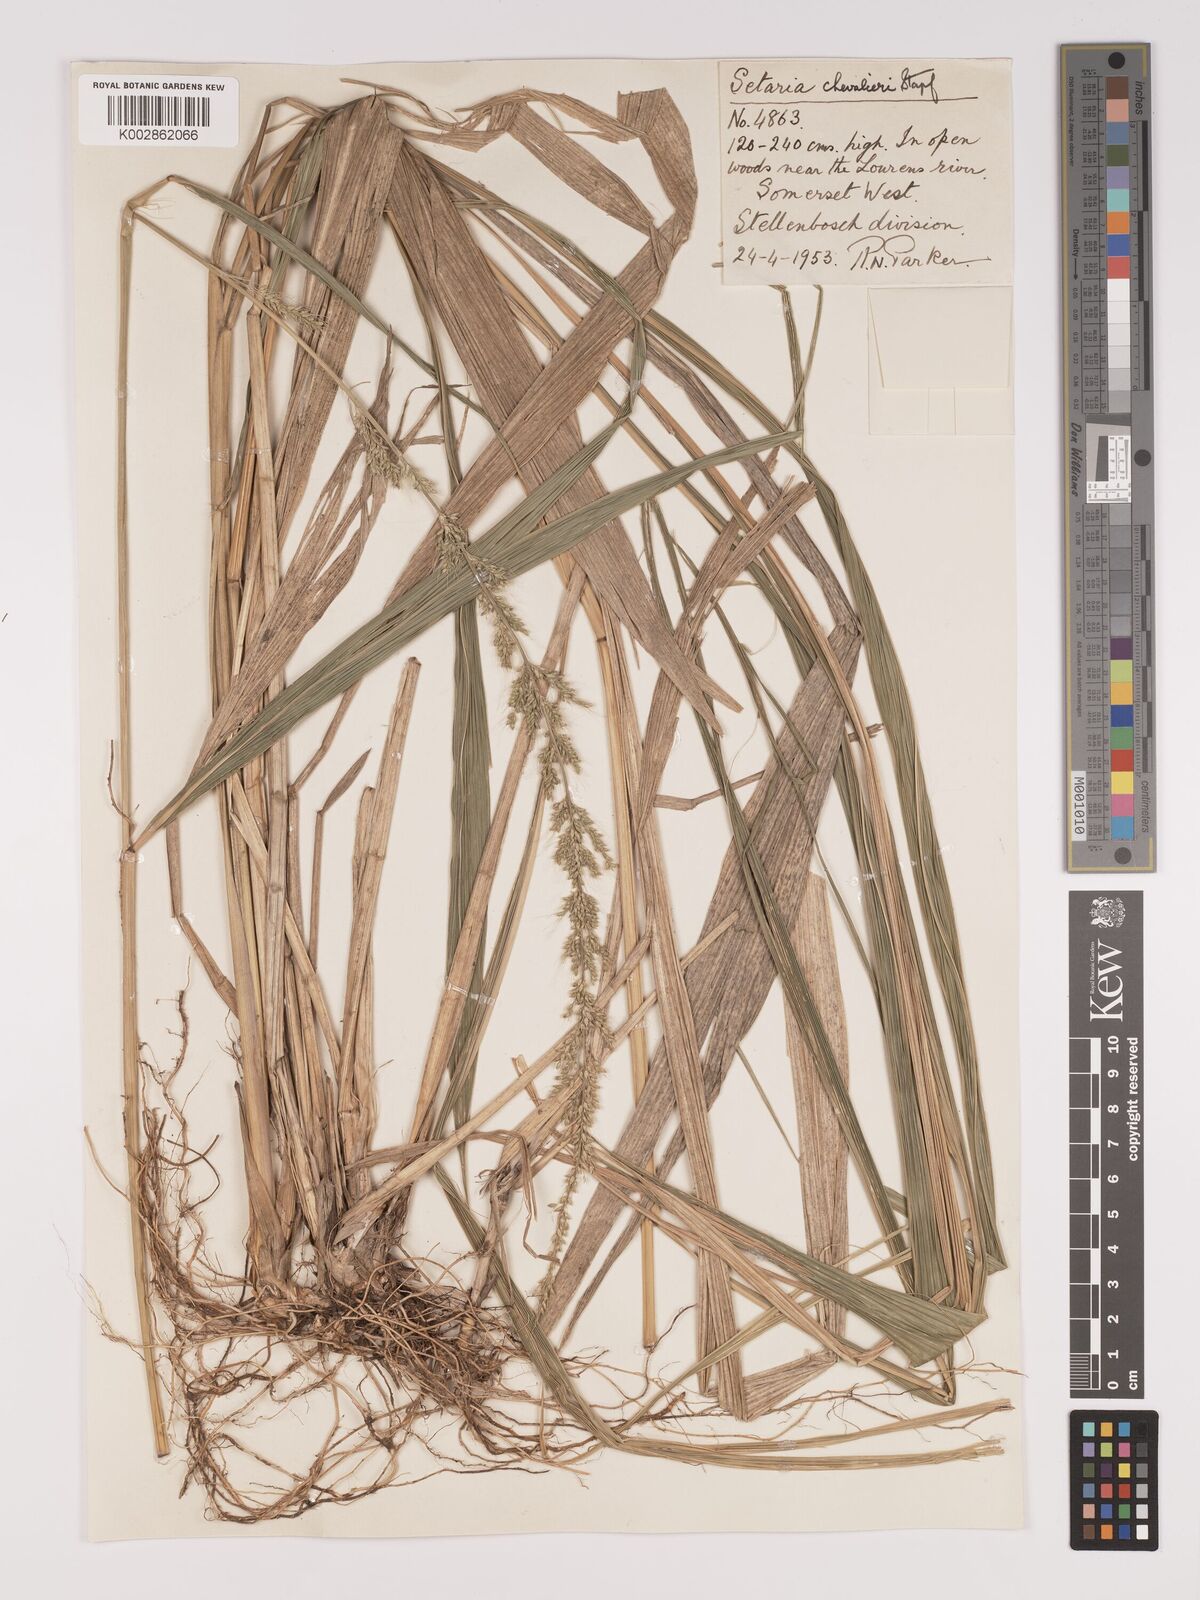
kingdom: Plantae
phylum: Tracheophyta
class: Liliopsida
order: Poales
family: Poaceae
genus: Setaria
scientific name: Setaria megaphylla
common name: Bigleaf bristlegrass
